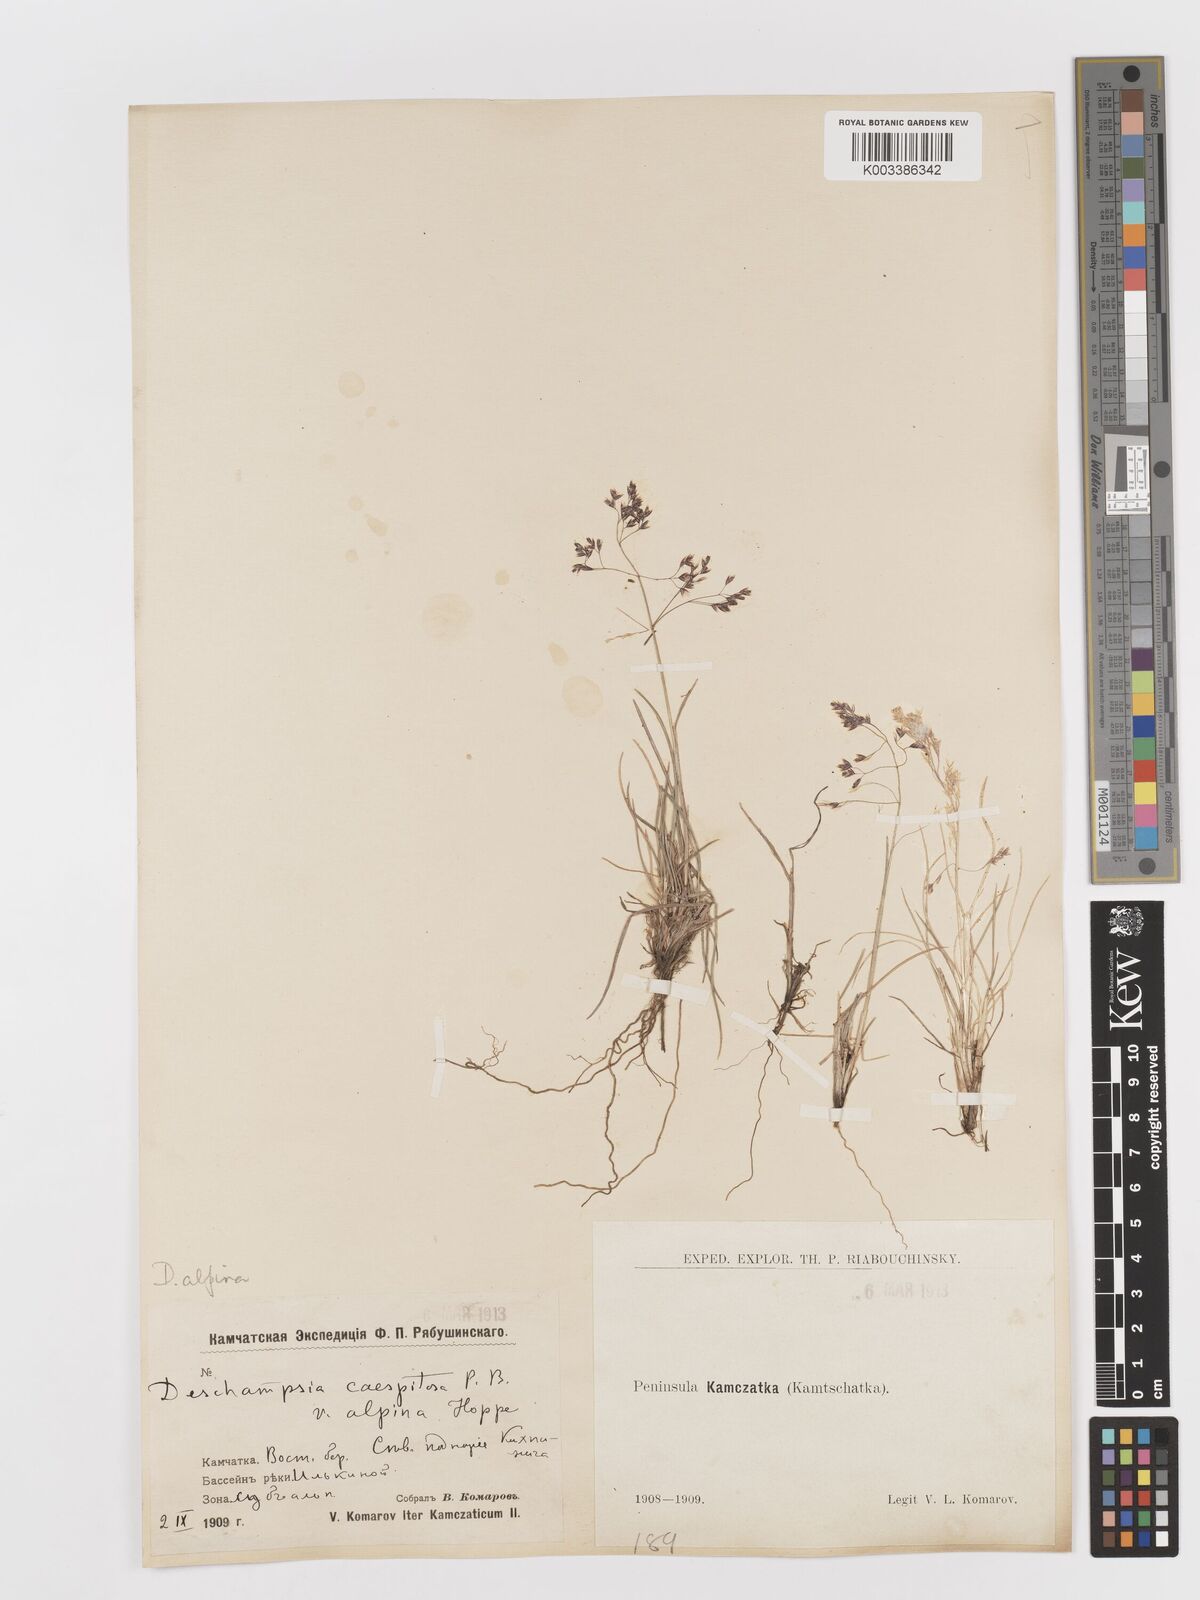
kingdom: Plantae
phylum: Tracheophyta
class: Liliopsida
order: Poales
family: Poaceae
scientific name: Poaceae
